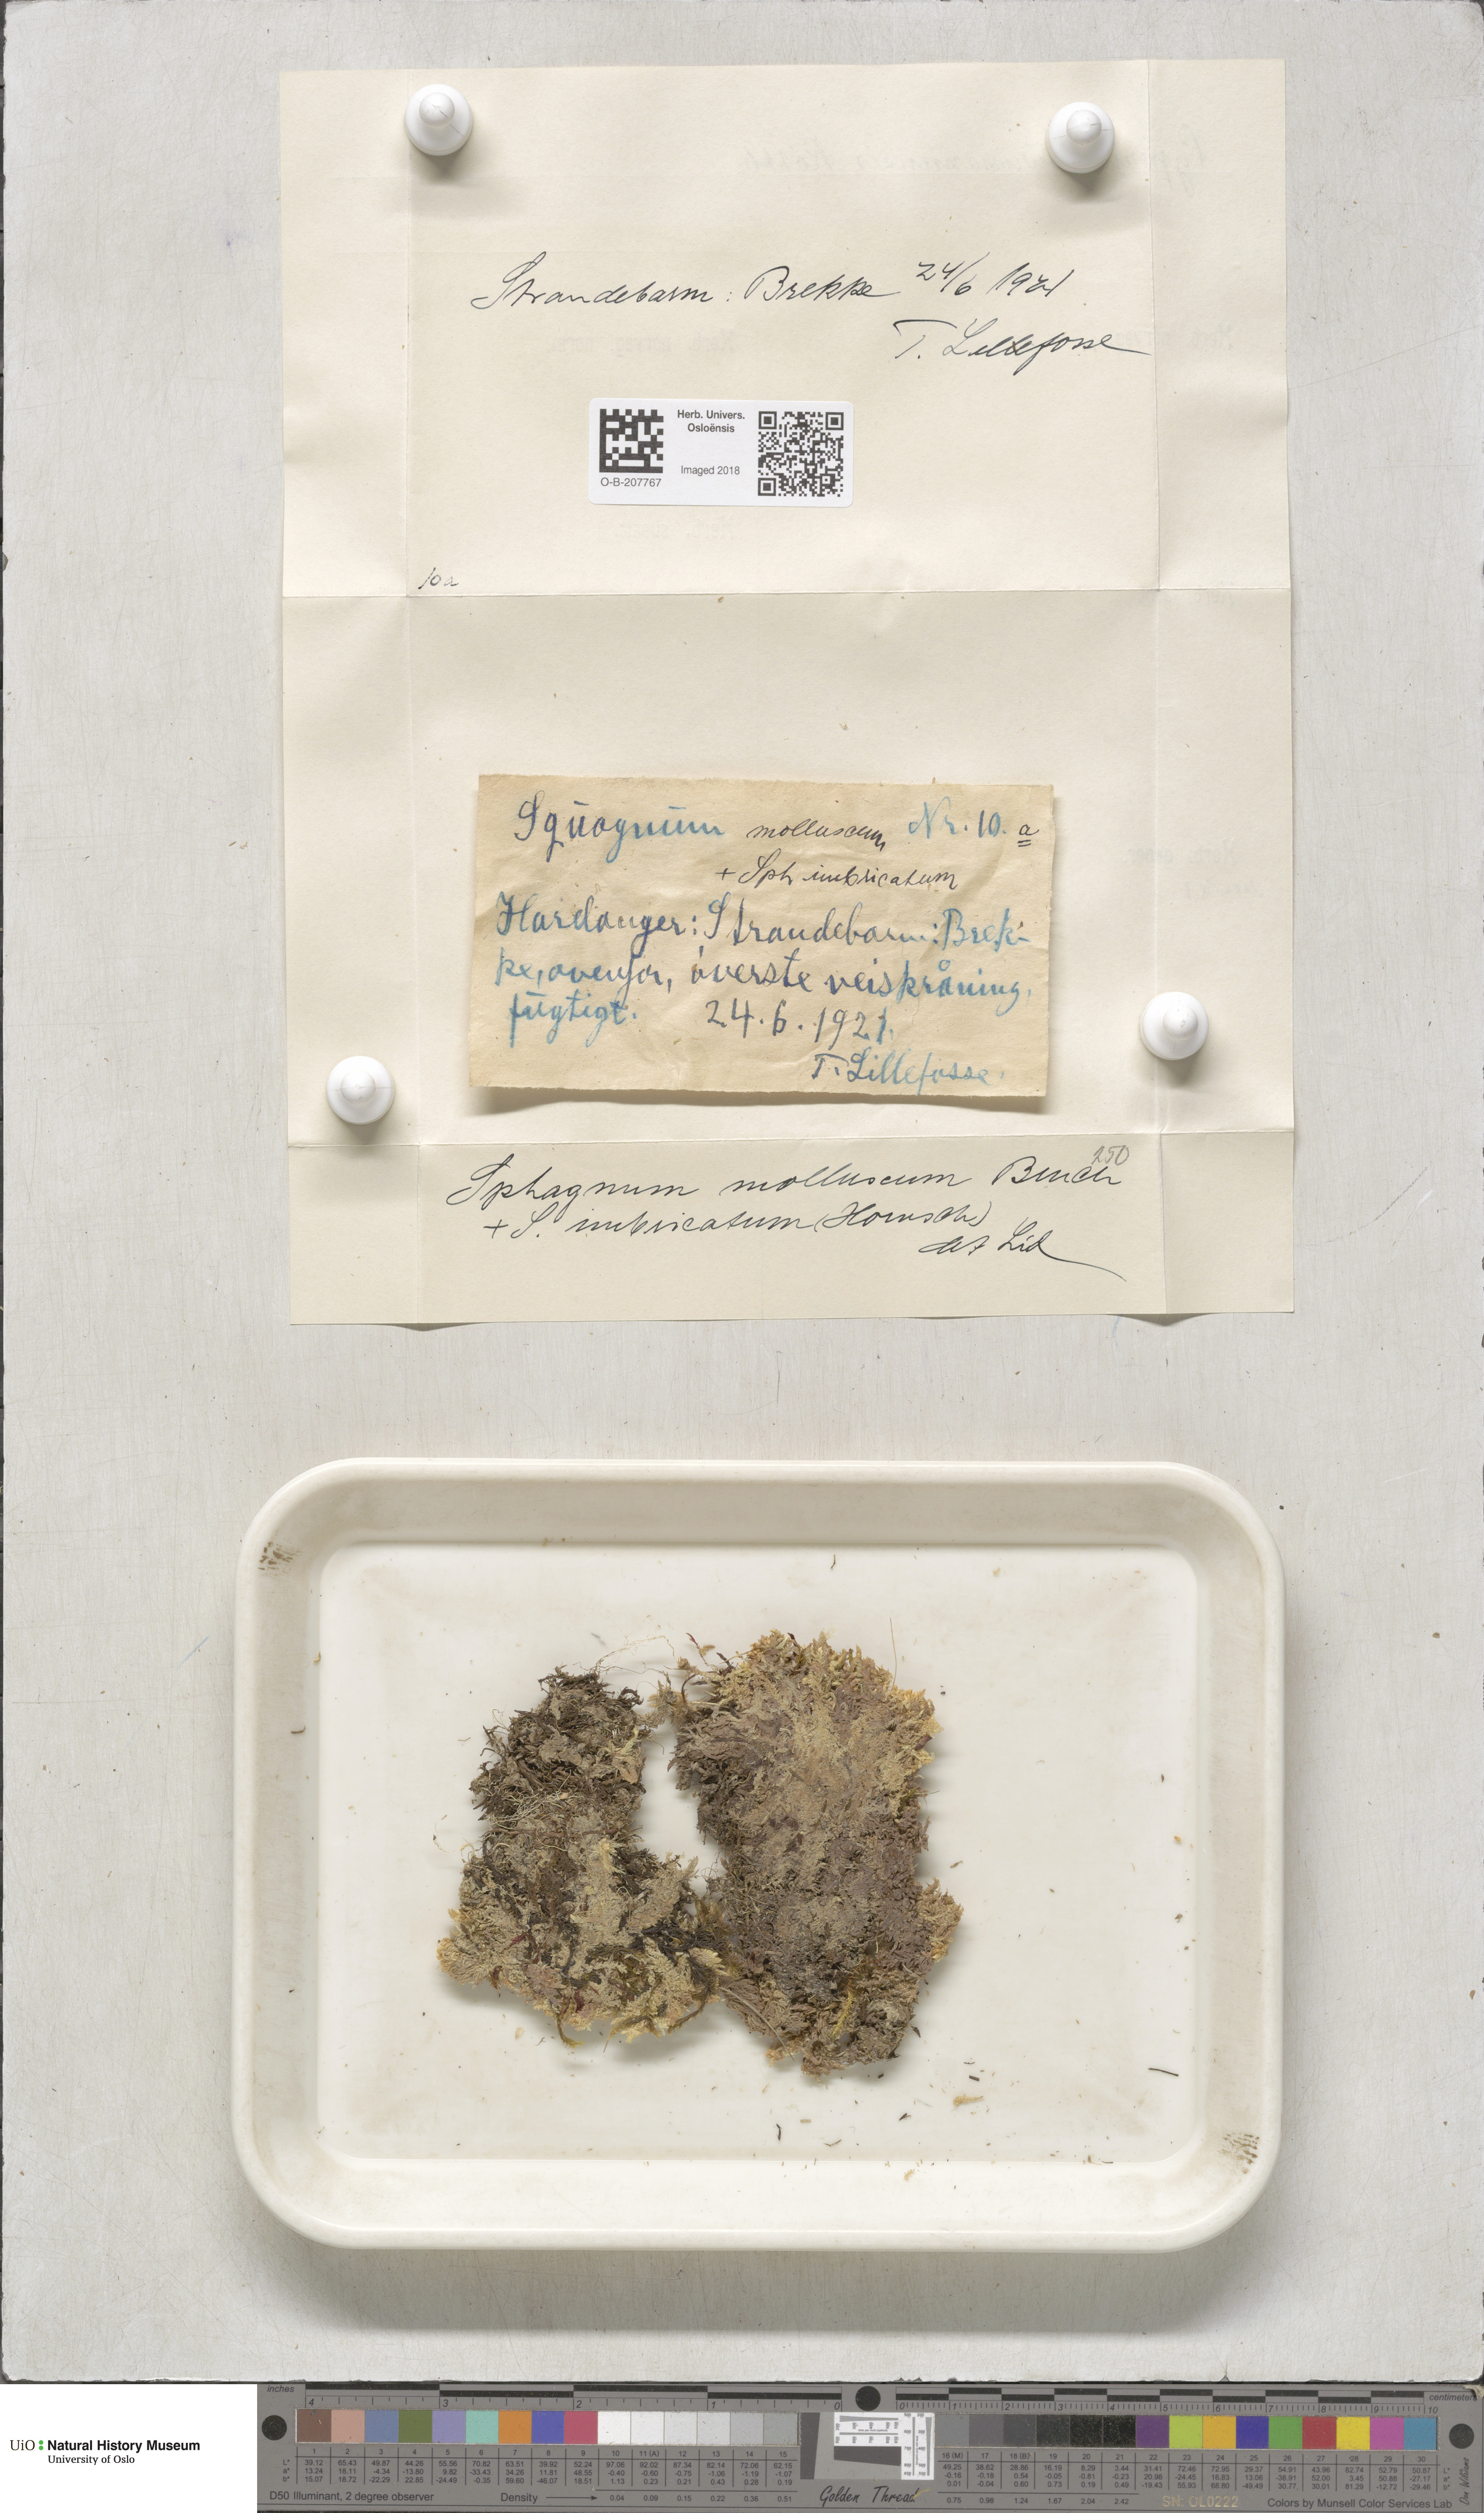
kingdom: Plantae
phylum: Bryophyta
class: Sphagnopsida
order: Sphagnales
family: Sphagnaceae
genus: Sphagnum
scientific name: Sphagnum tenellum
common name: Soft bog-moss
